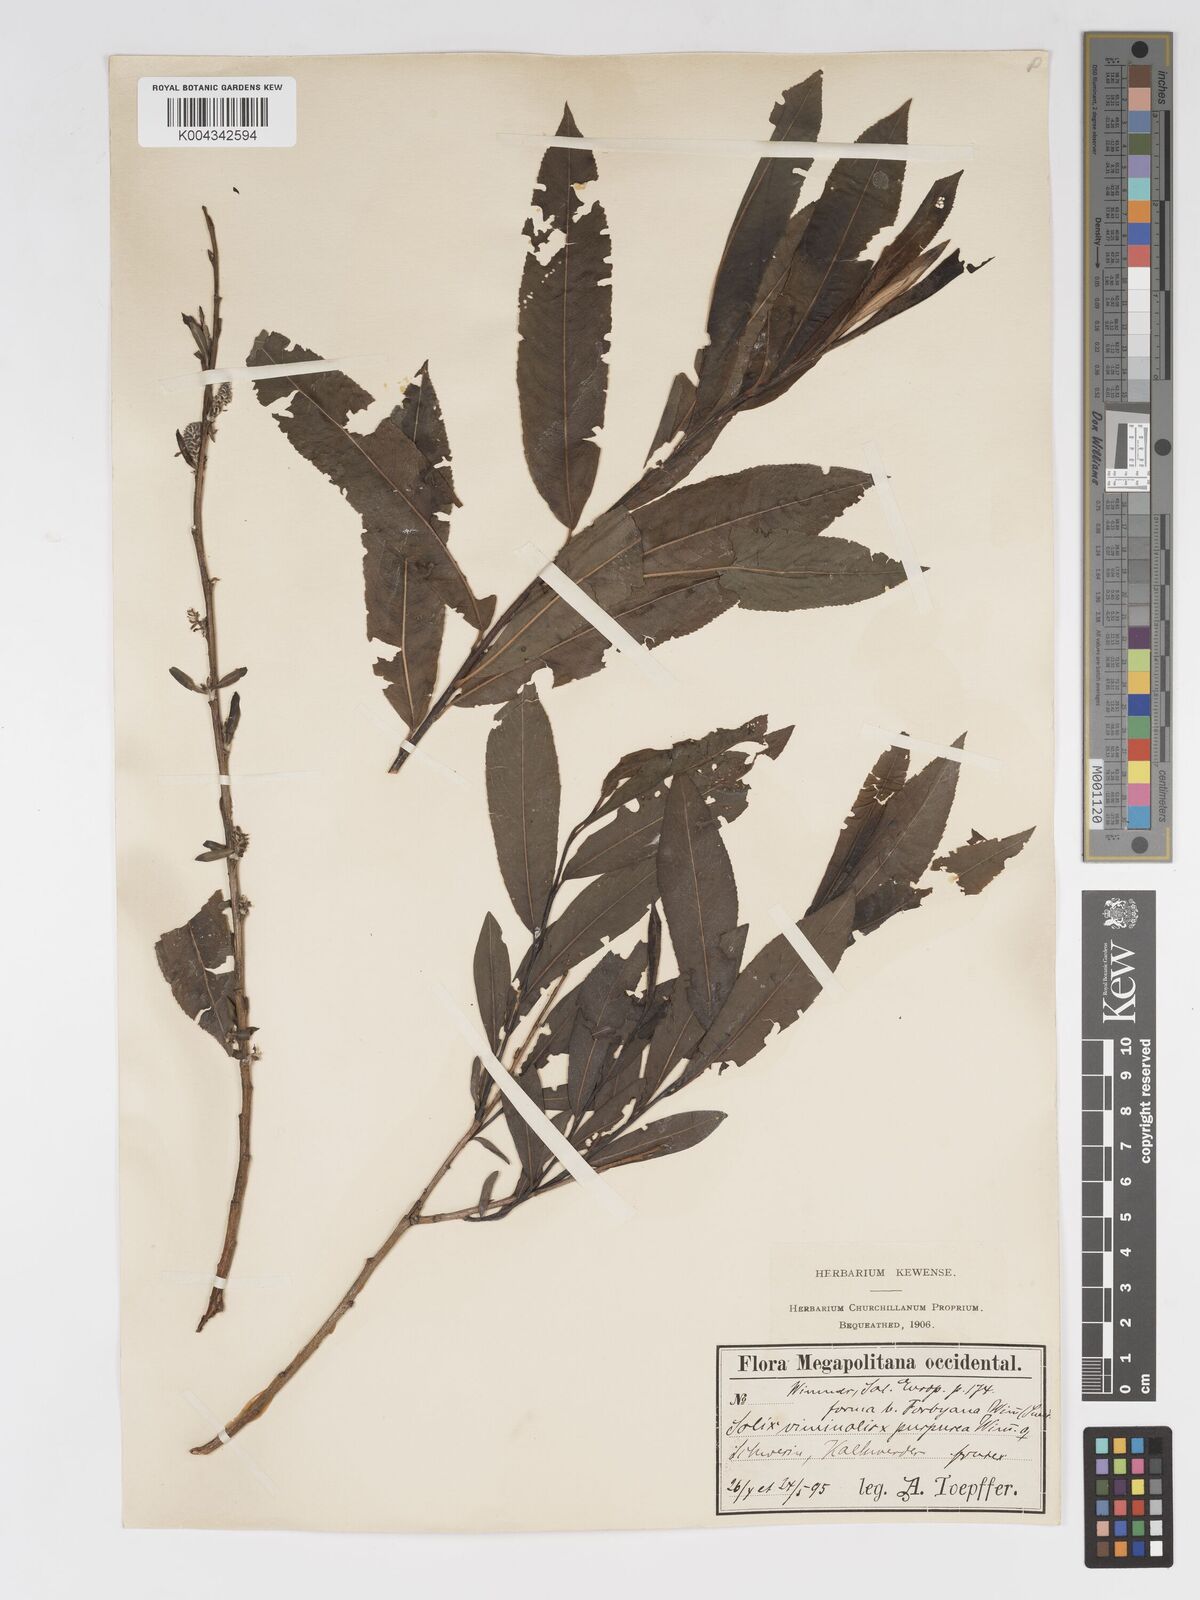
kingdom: Plantae
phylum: Tracheophyta
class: Magnoliopsida
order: Malpighiales
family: Salicaceae
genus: Salix
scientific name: Salix cinerea
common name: Common sallow
